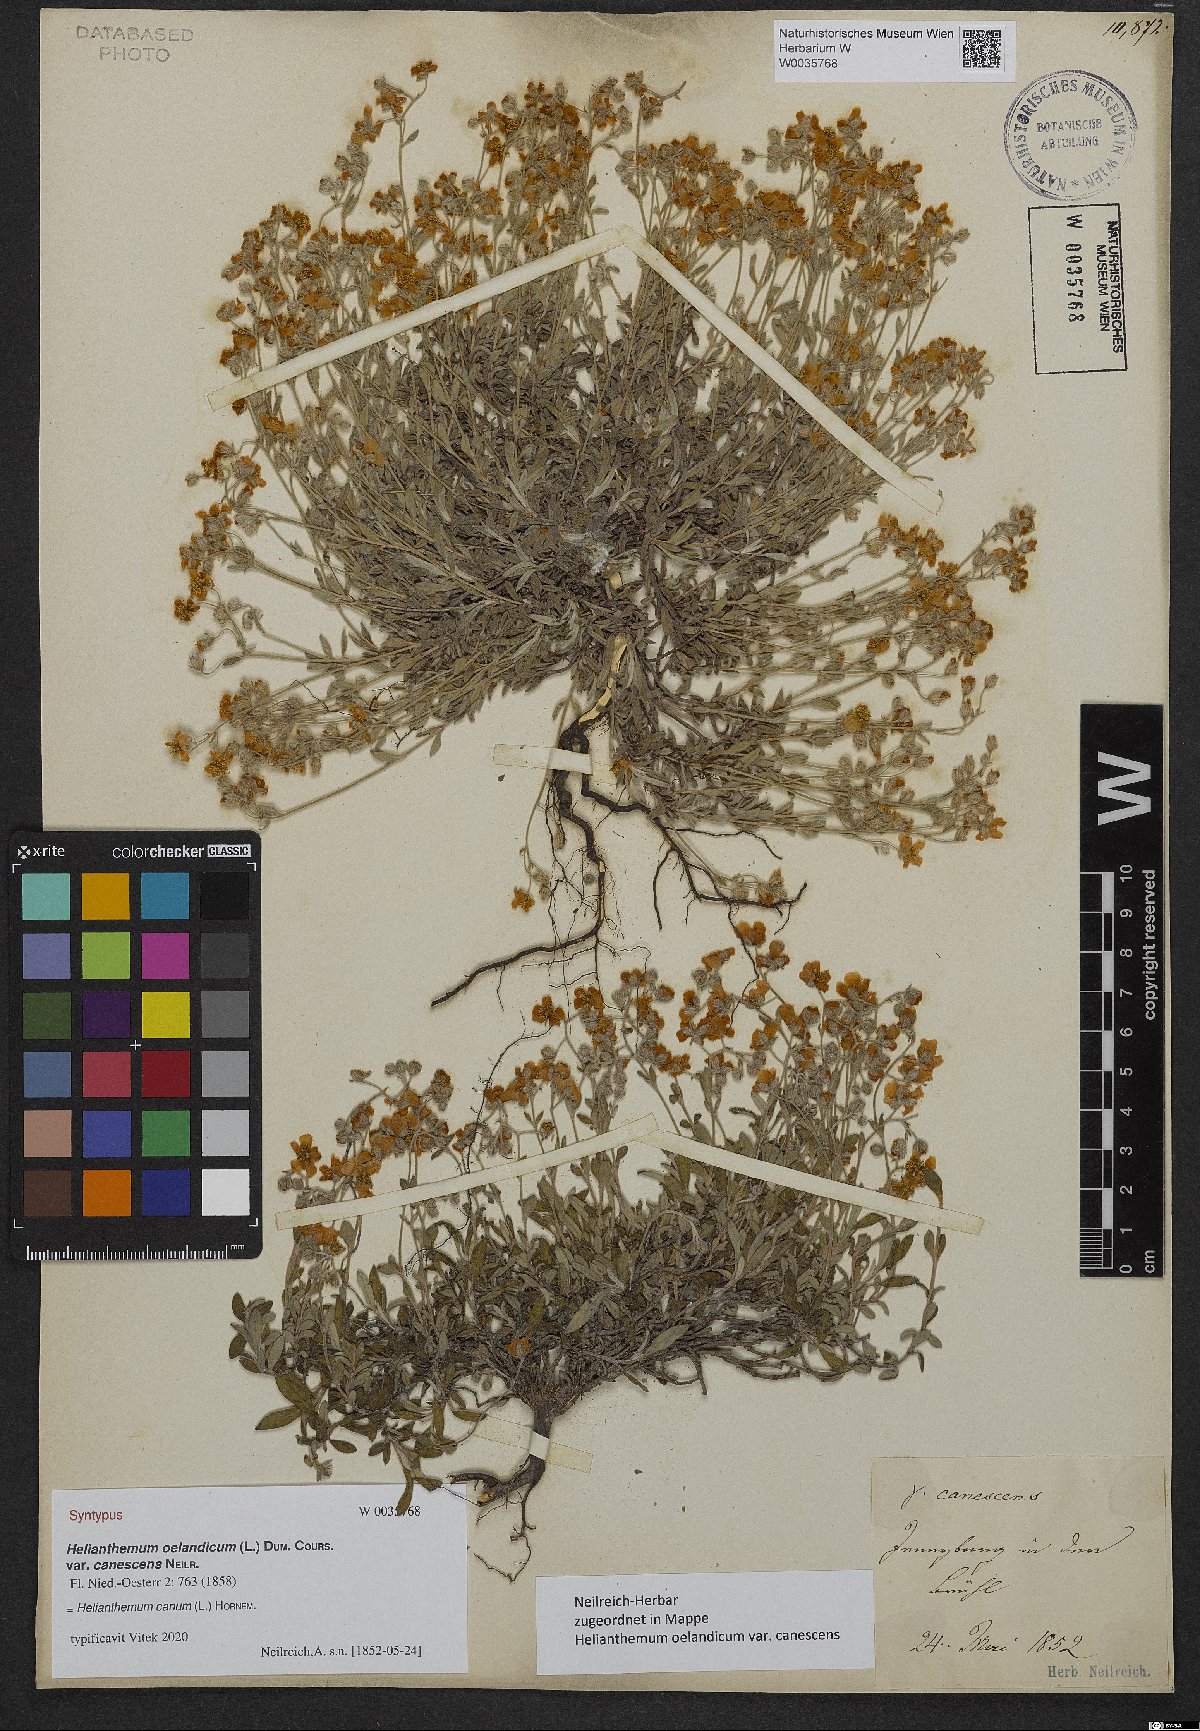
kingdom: Plantae
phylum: Tracheophyta
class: Magnoliopsida
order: Malvales
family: Cistaceae
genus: Helianthemum
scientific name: Helianthemum oelandicum
